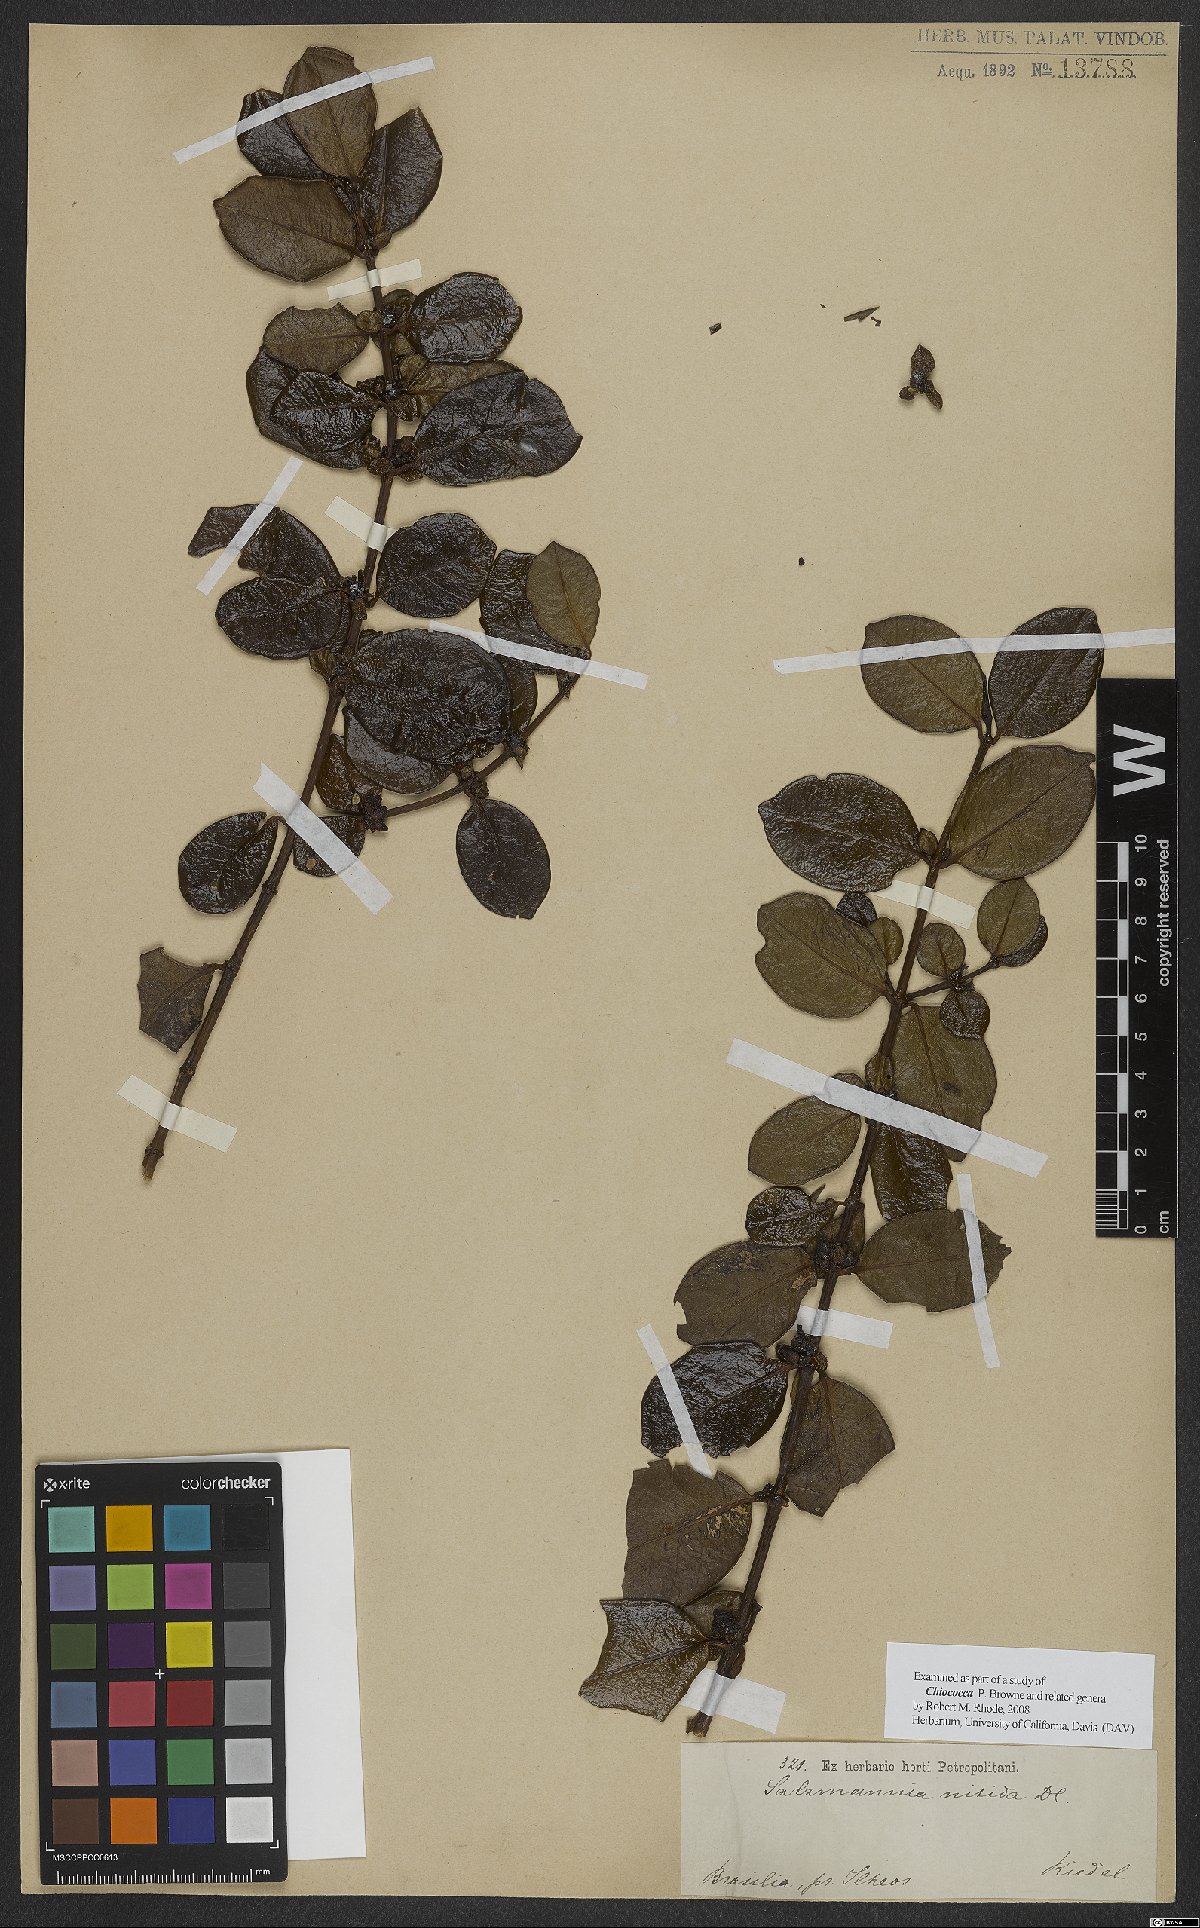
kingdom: Plantae
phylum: Tracheophyta
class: Magnoliopsida
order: Gentianales
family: Rubiaceae
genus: Chiococca
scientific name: Chiococca nitida
